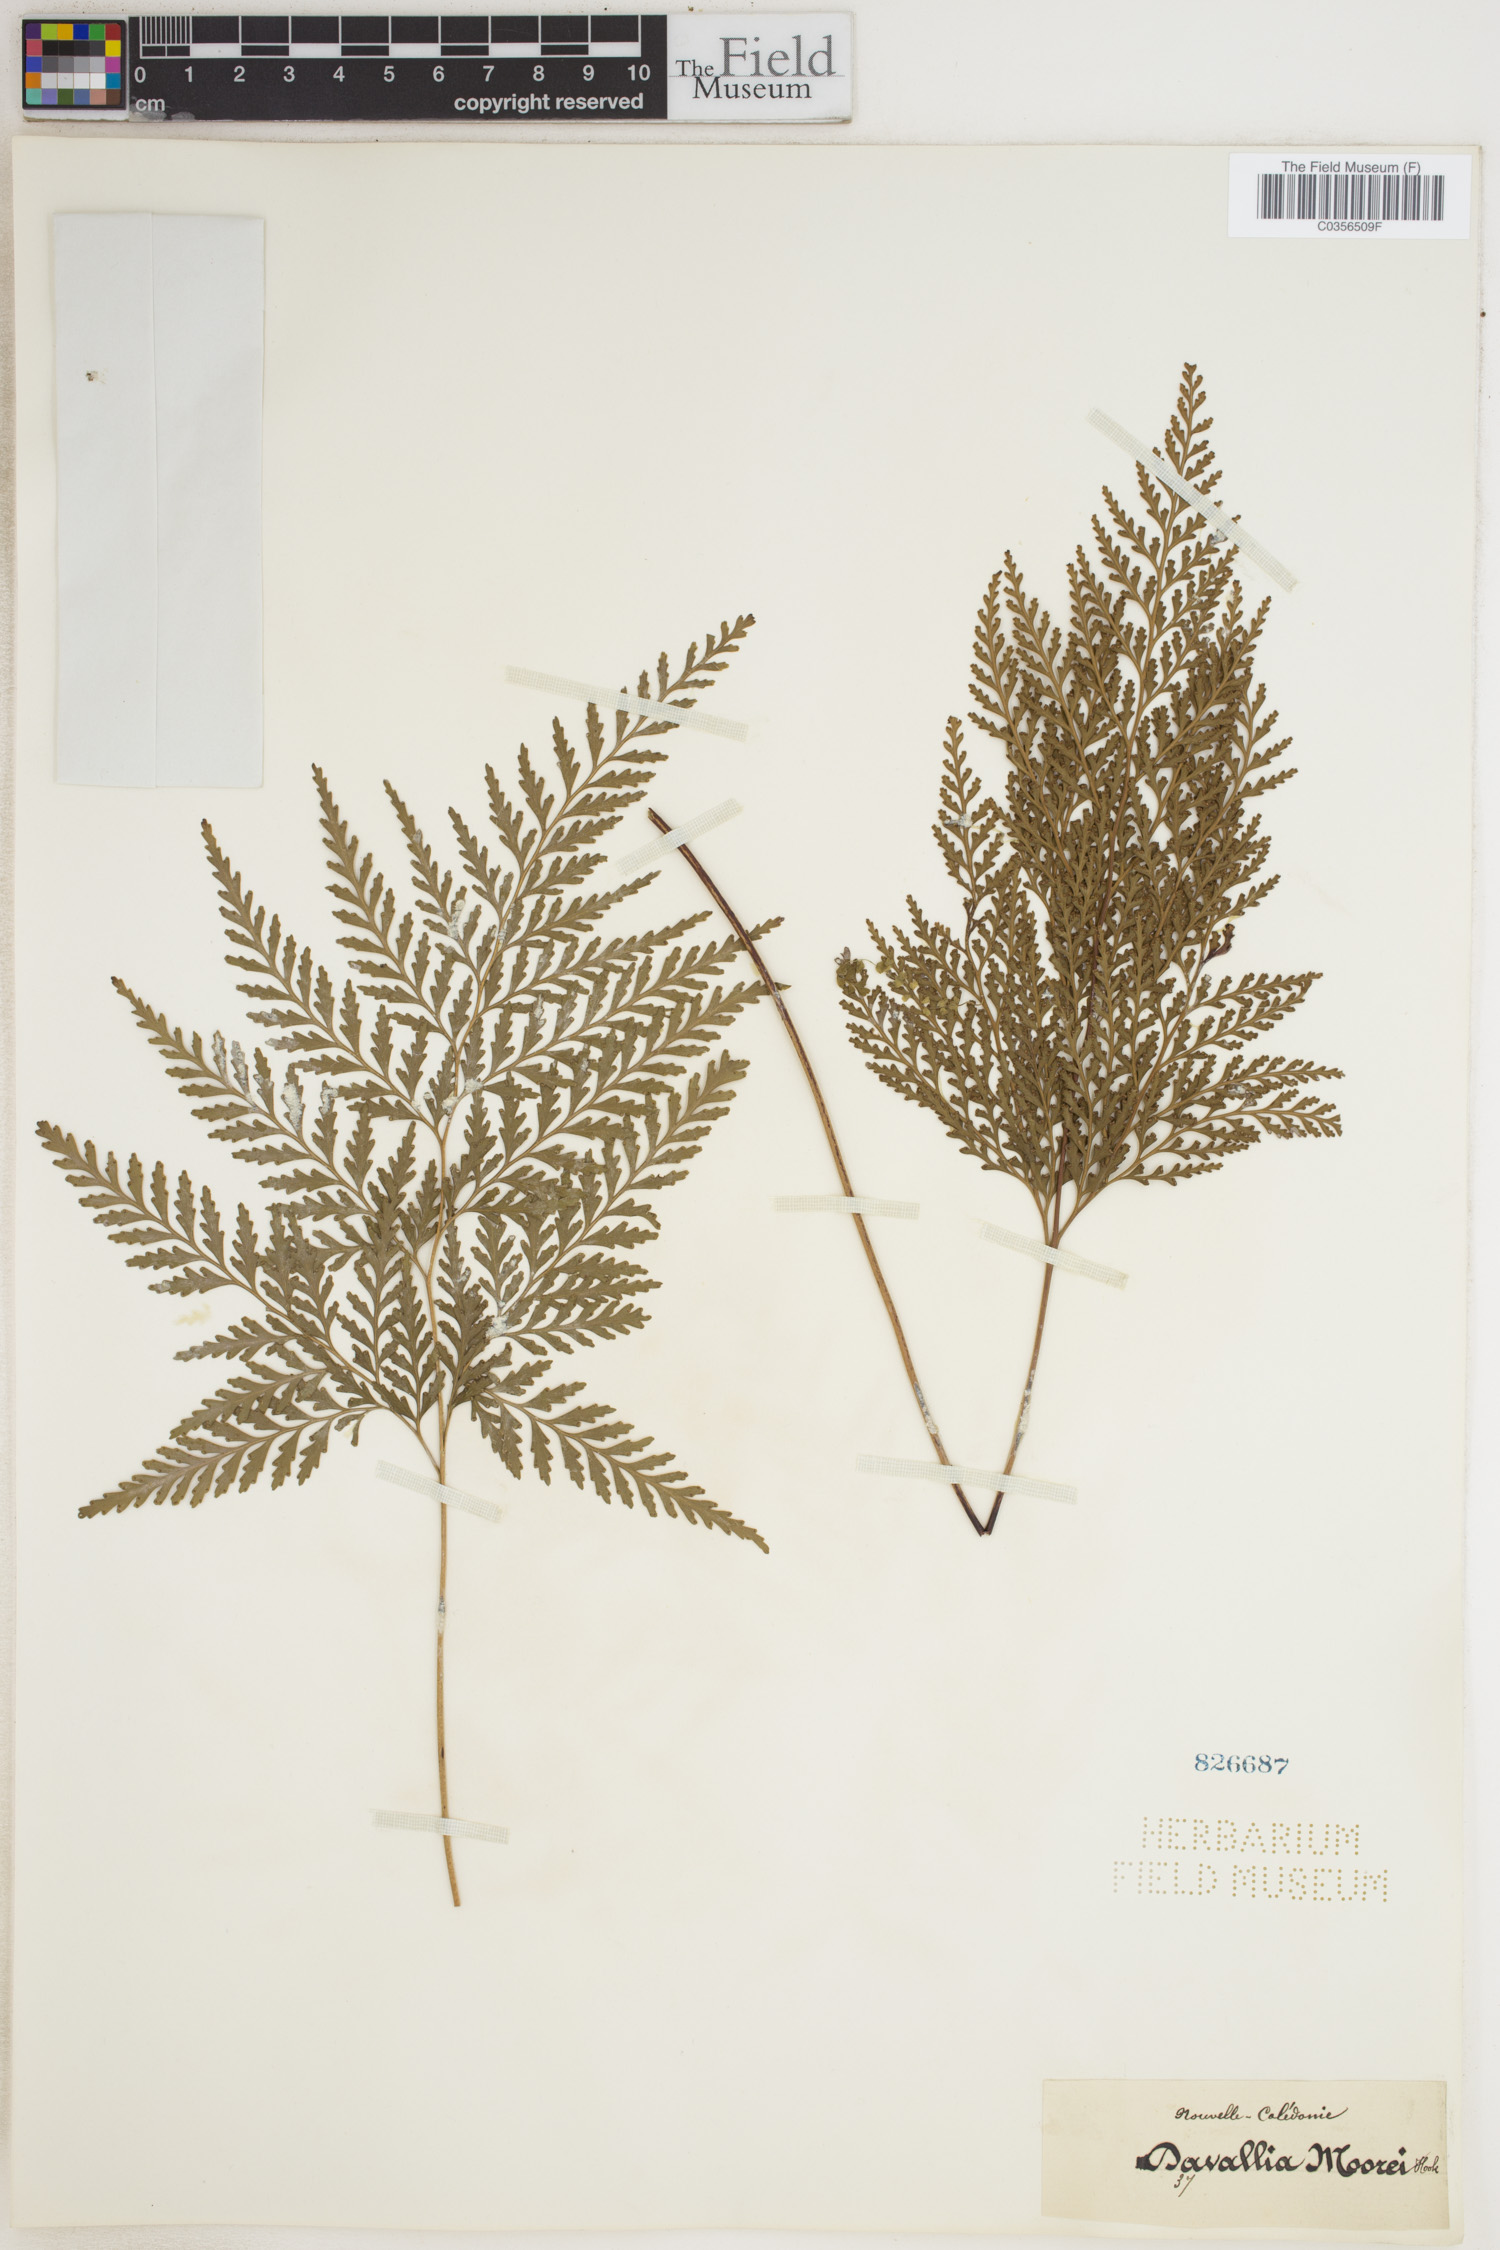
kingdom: Plantae
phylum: Tracheophyta
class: Polypodiopsida
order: Polypodiales
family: Lindsaeaceae
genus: Tapeinidium
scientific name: Tapeinidium moorei
